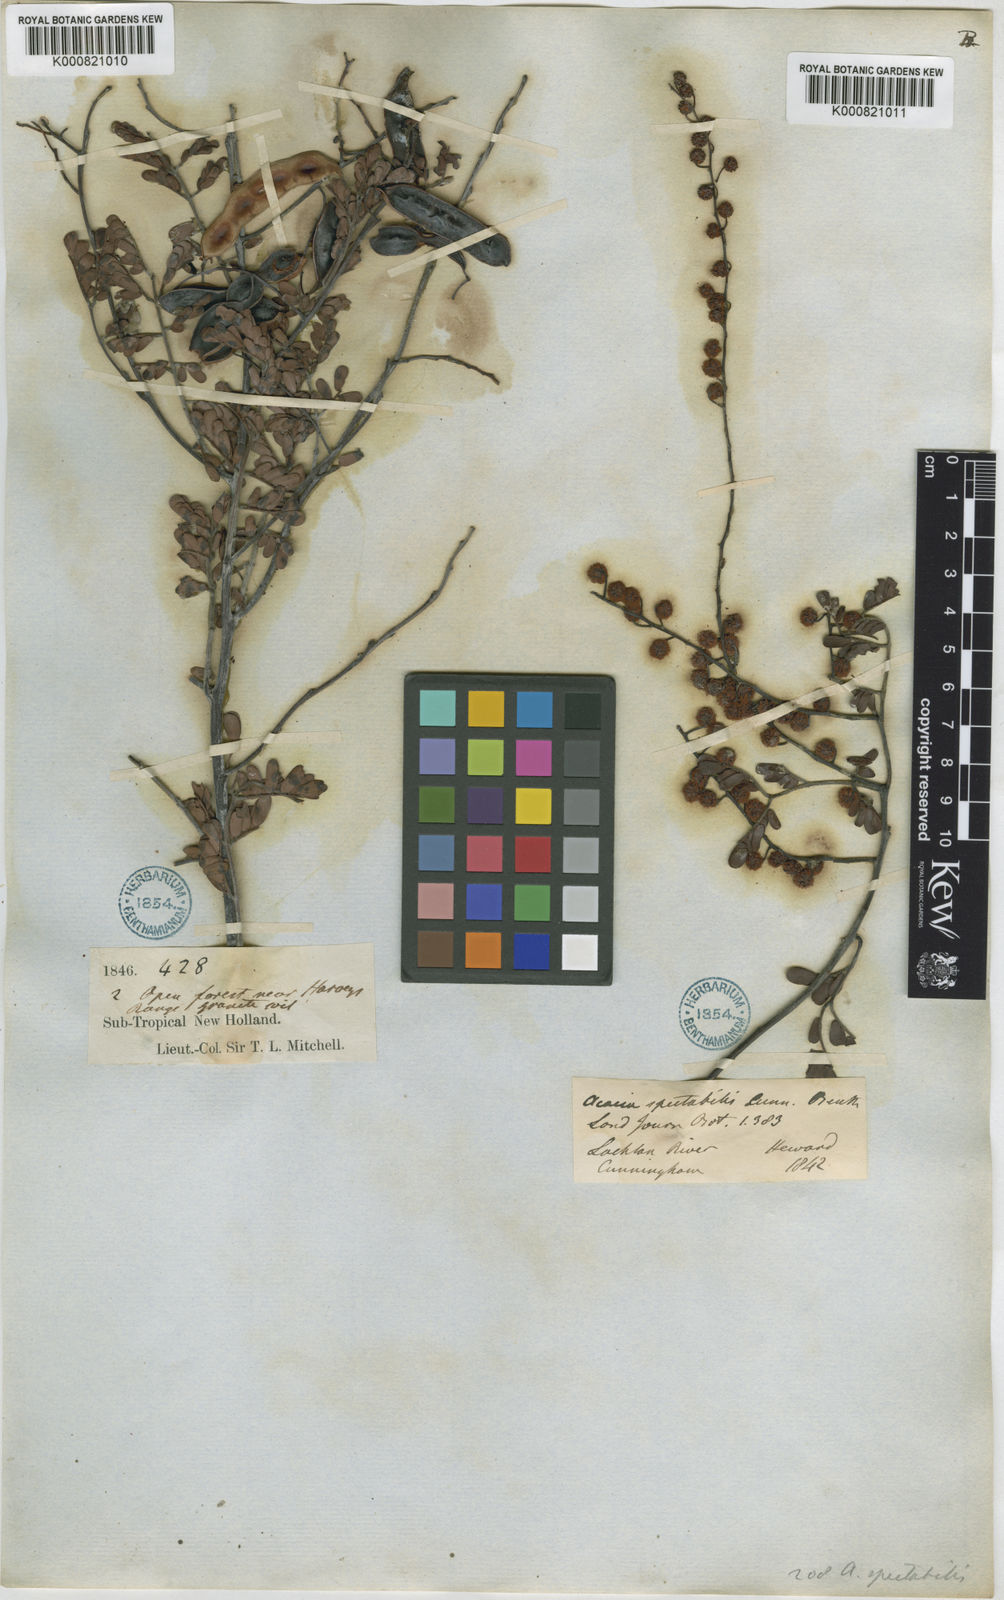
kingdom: Plantae
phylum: Tracheophyta
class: Magnoliopsida
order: Fabales
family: Fabaceae
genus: Acacia
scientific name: Acacia spectabilis
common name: Golden wattle
